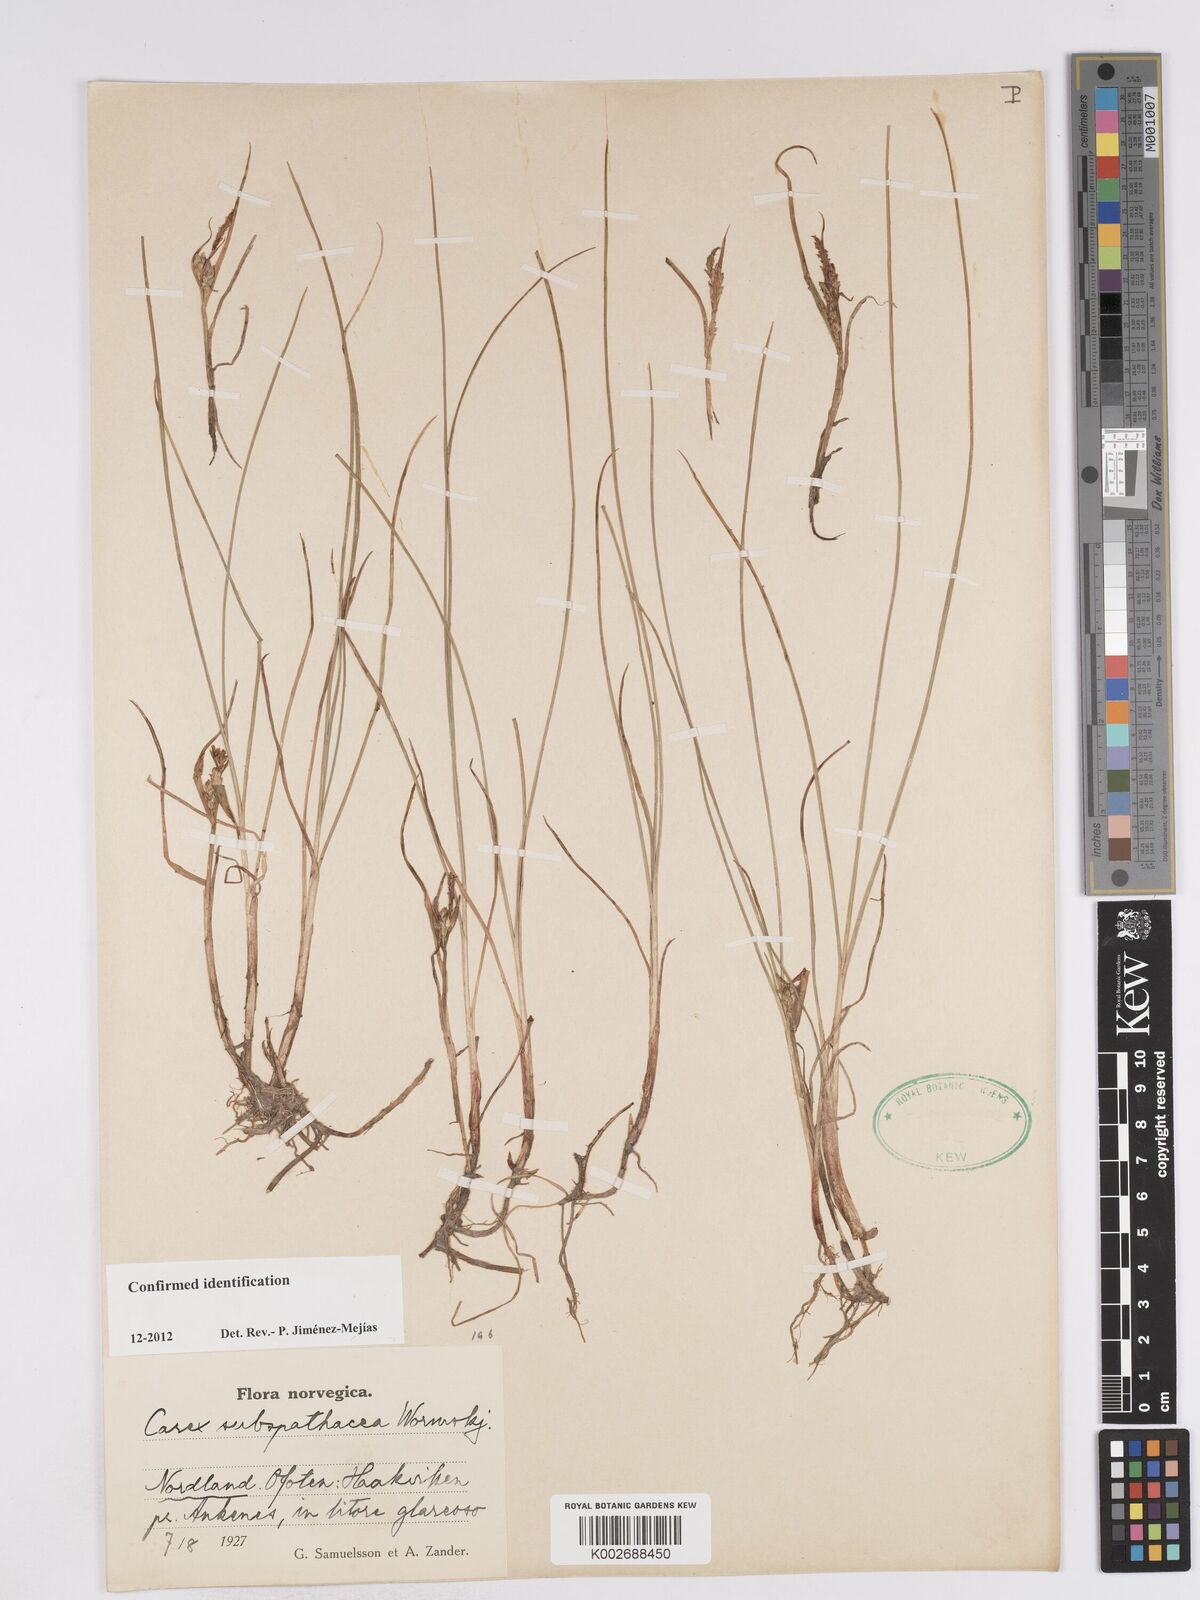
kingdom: Plantae
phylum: Tracheophyta
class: Liliopsida
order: Poales
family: Cyperaceae
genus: Carex
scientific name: Carex subspathacea
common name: Hoppner's sedge
